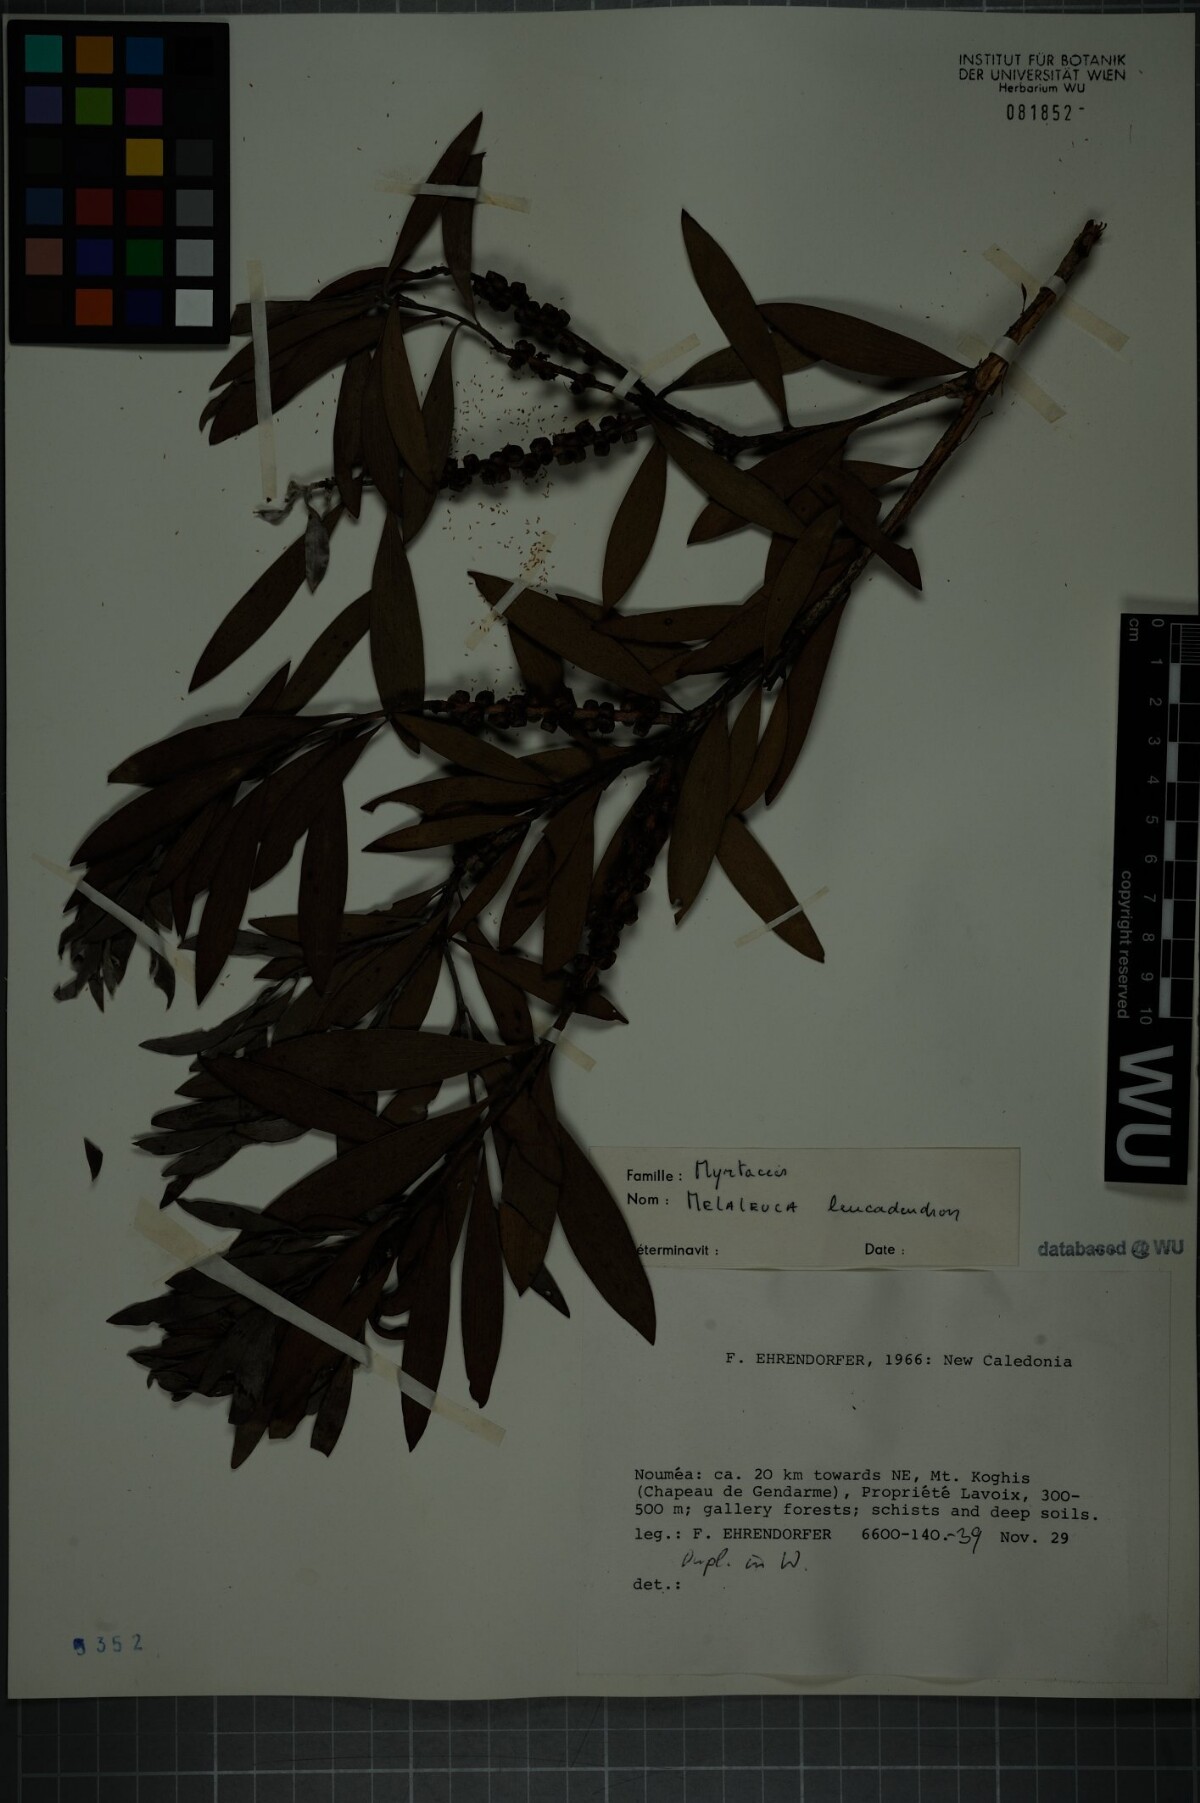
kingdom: Plantae
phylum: Tracheophyta
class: Magnoliopsida
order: Myrtales
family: Myrtaceae
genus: Melaleuca
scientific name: Melaleuca leucadendra
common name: Weeping paperbark
